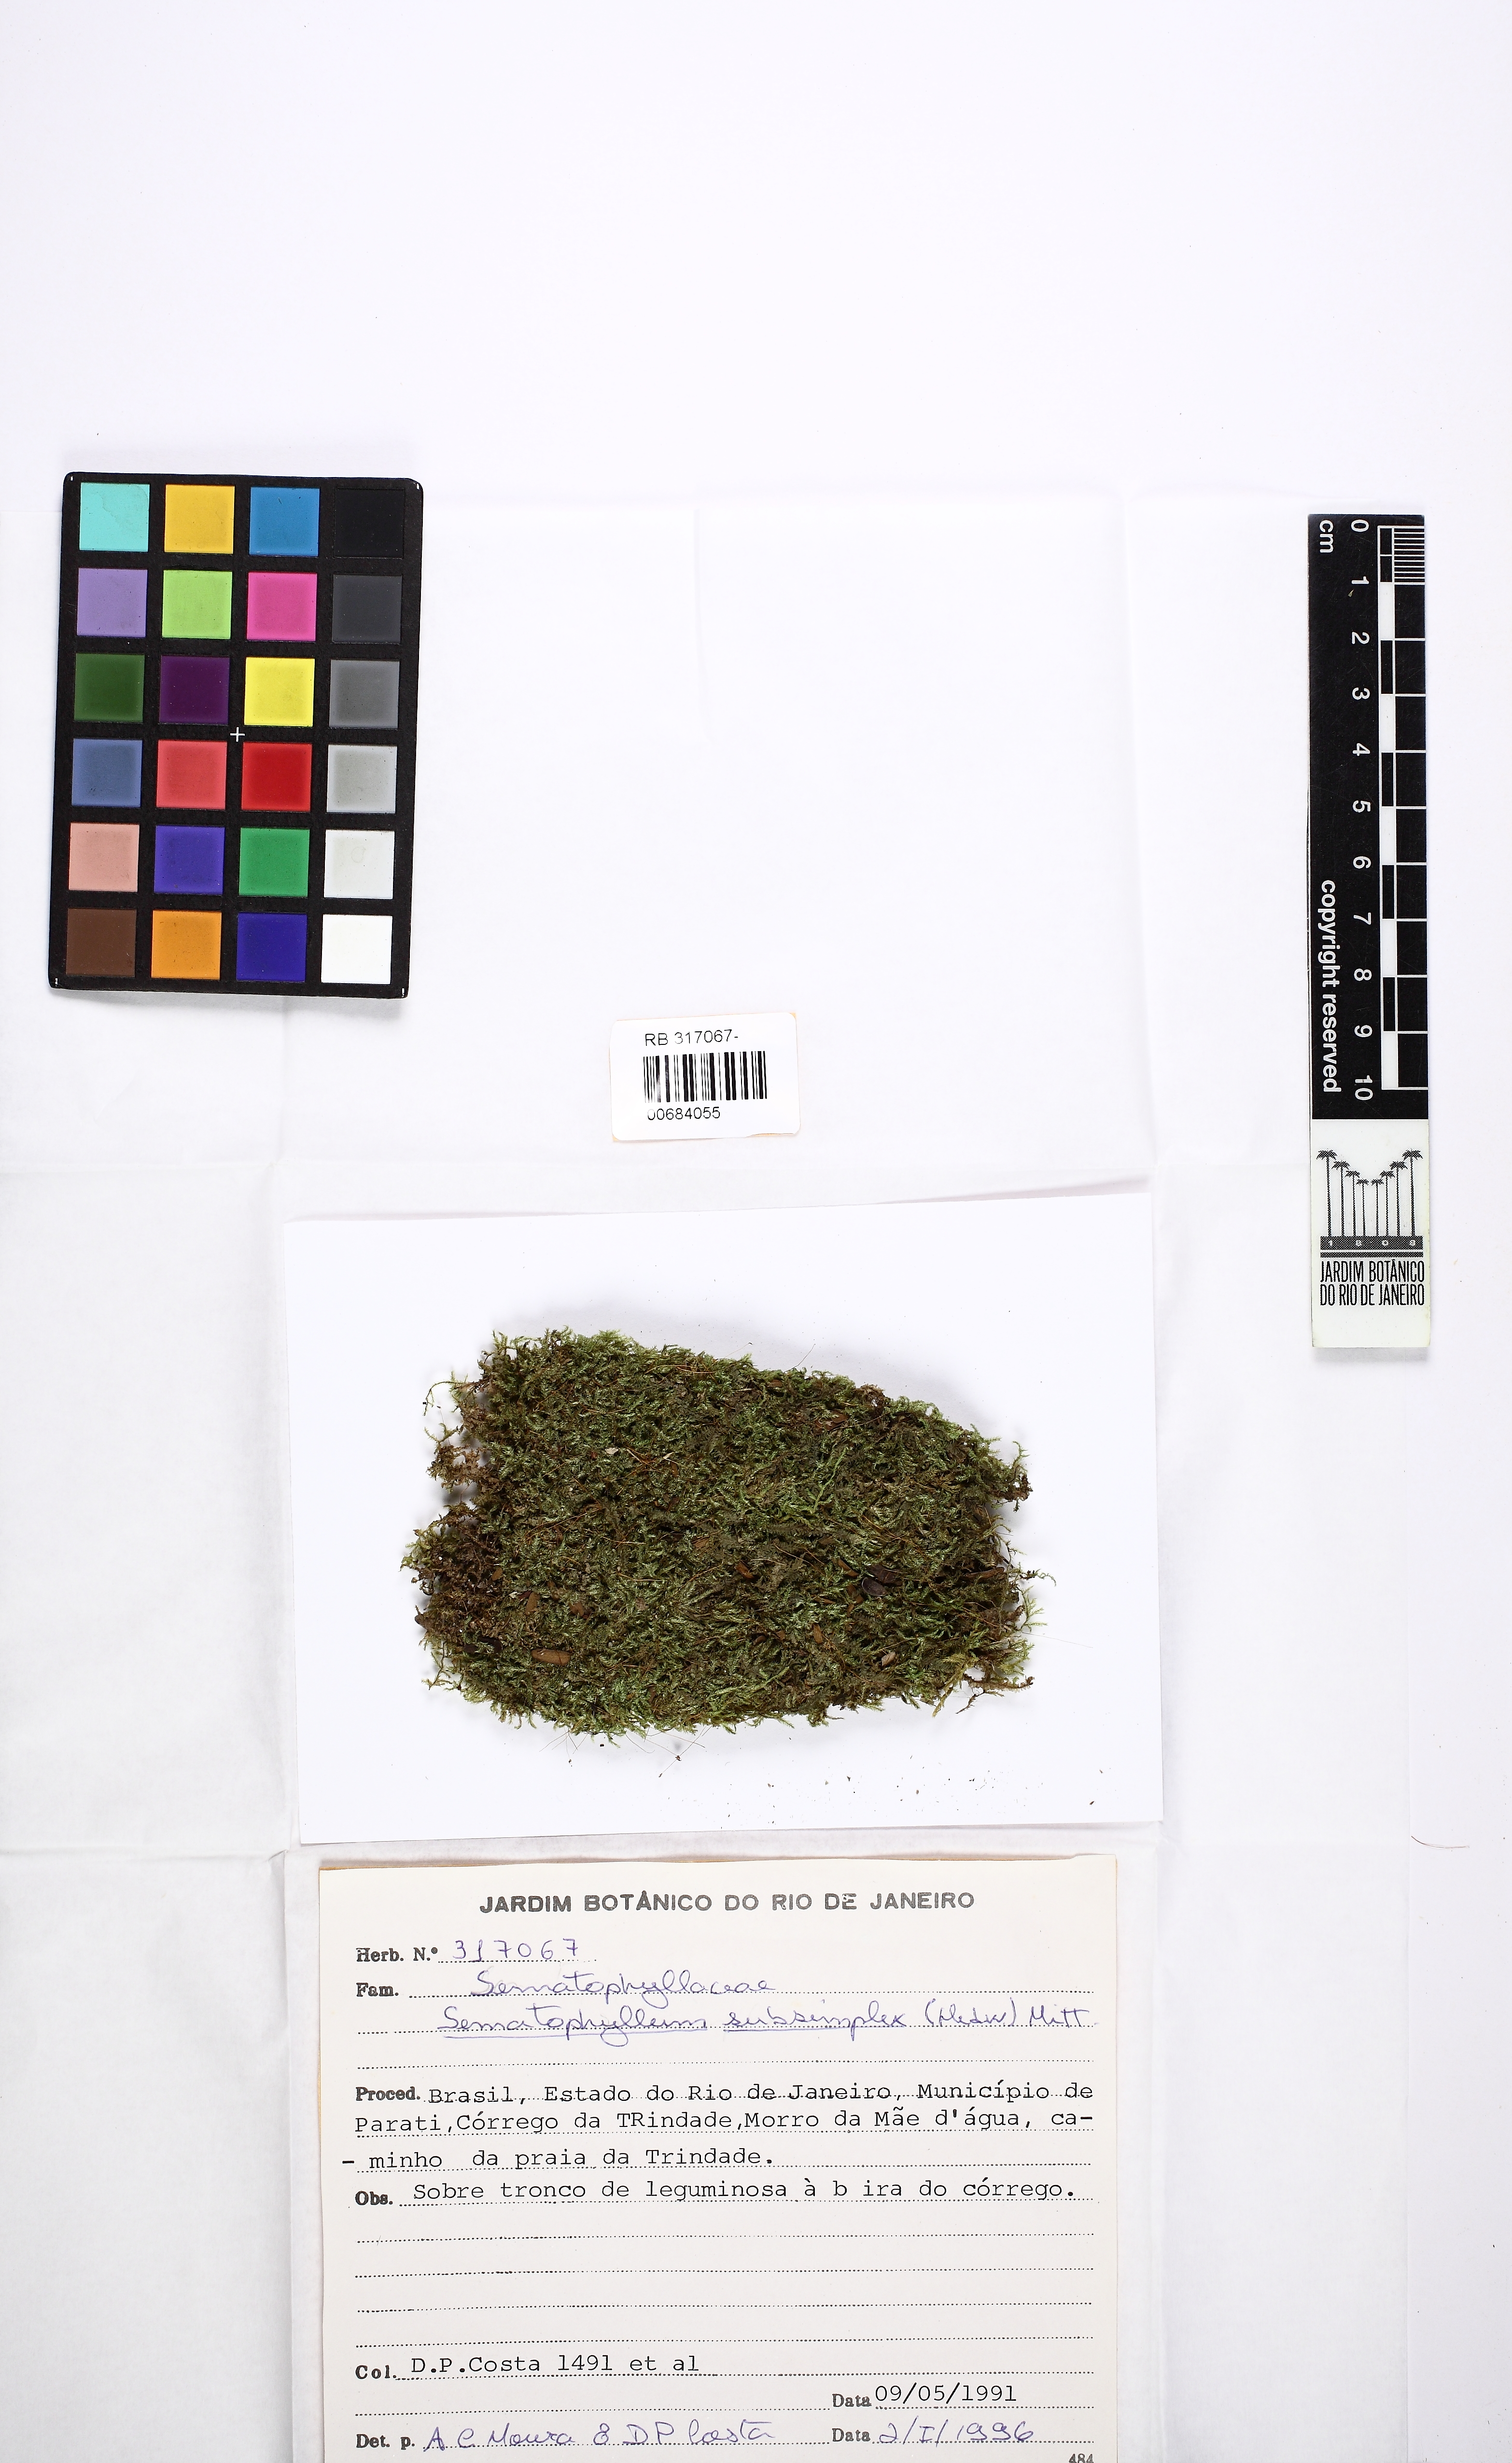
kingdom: Plantae
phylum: Bryophyta
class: Bryopsida
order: Hypnales
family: Sematophyllaceae
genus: Microcalpe
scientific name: Microcalpe subsimplex
